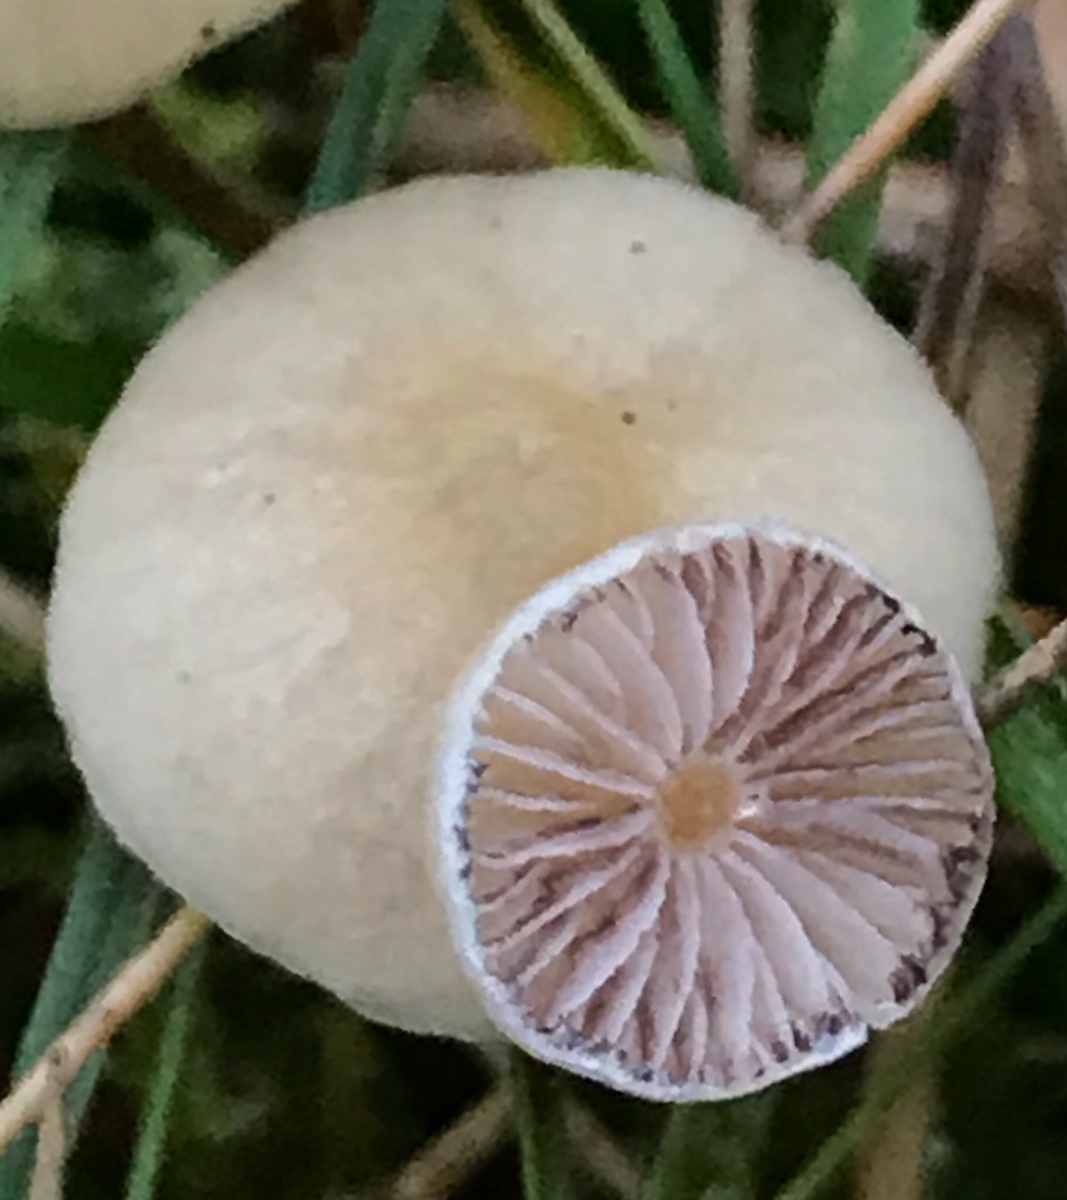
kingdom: Fungi
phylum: Basidiomycota
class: Agaricomycetes
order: Agaricales
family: Strophariaceae
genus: Hypholoma
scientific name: Hypholoma elongatum
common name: slank svovlhat
